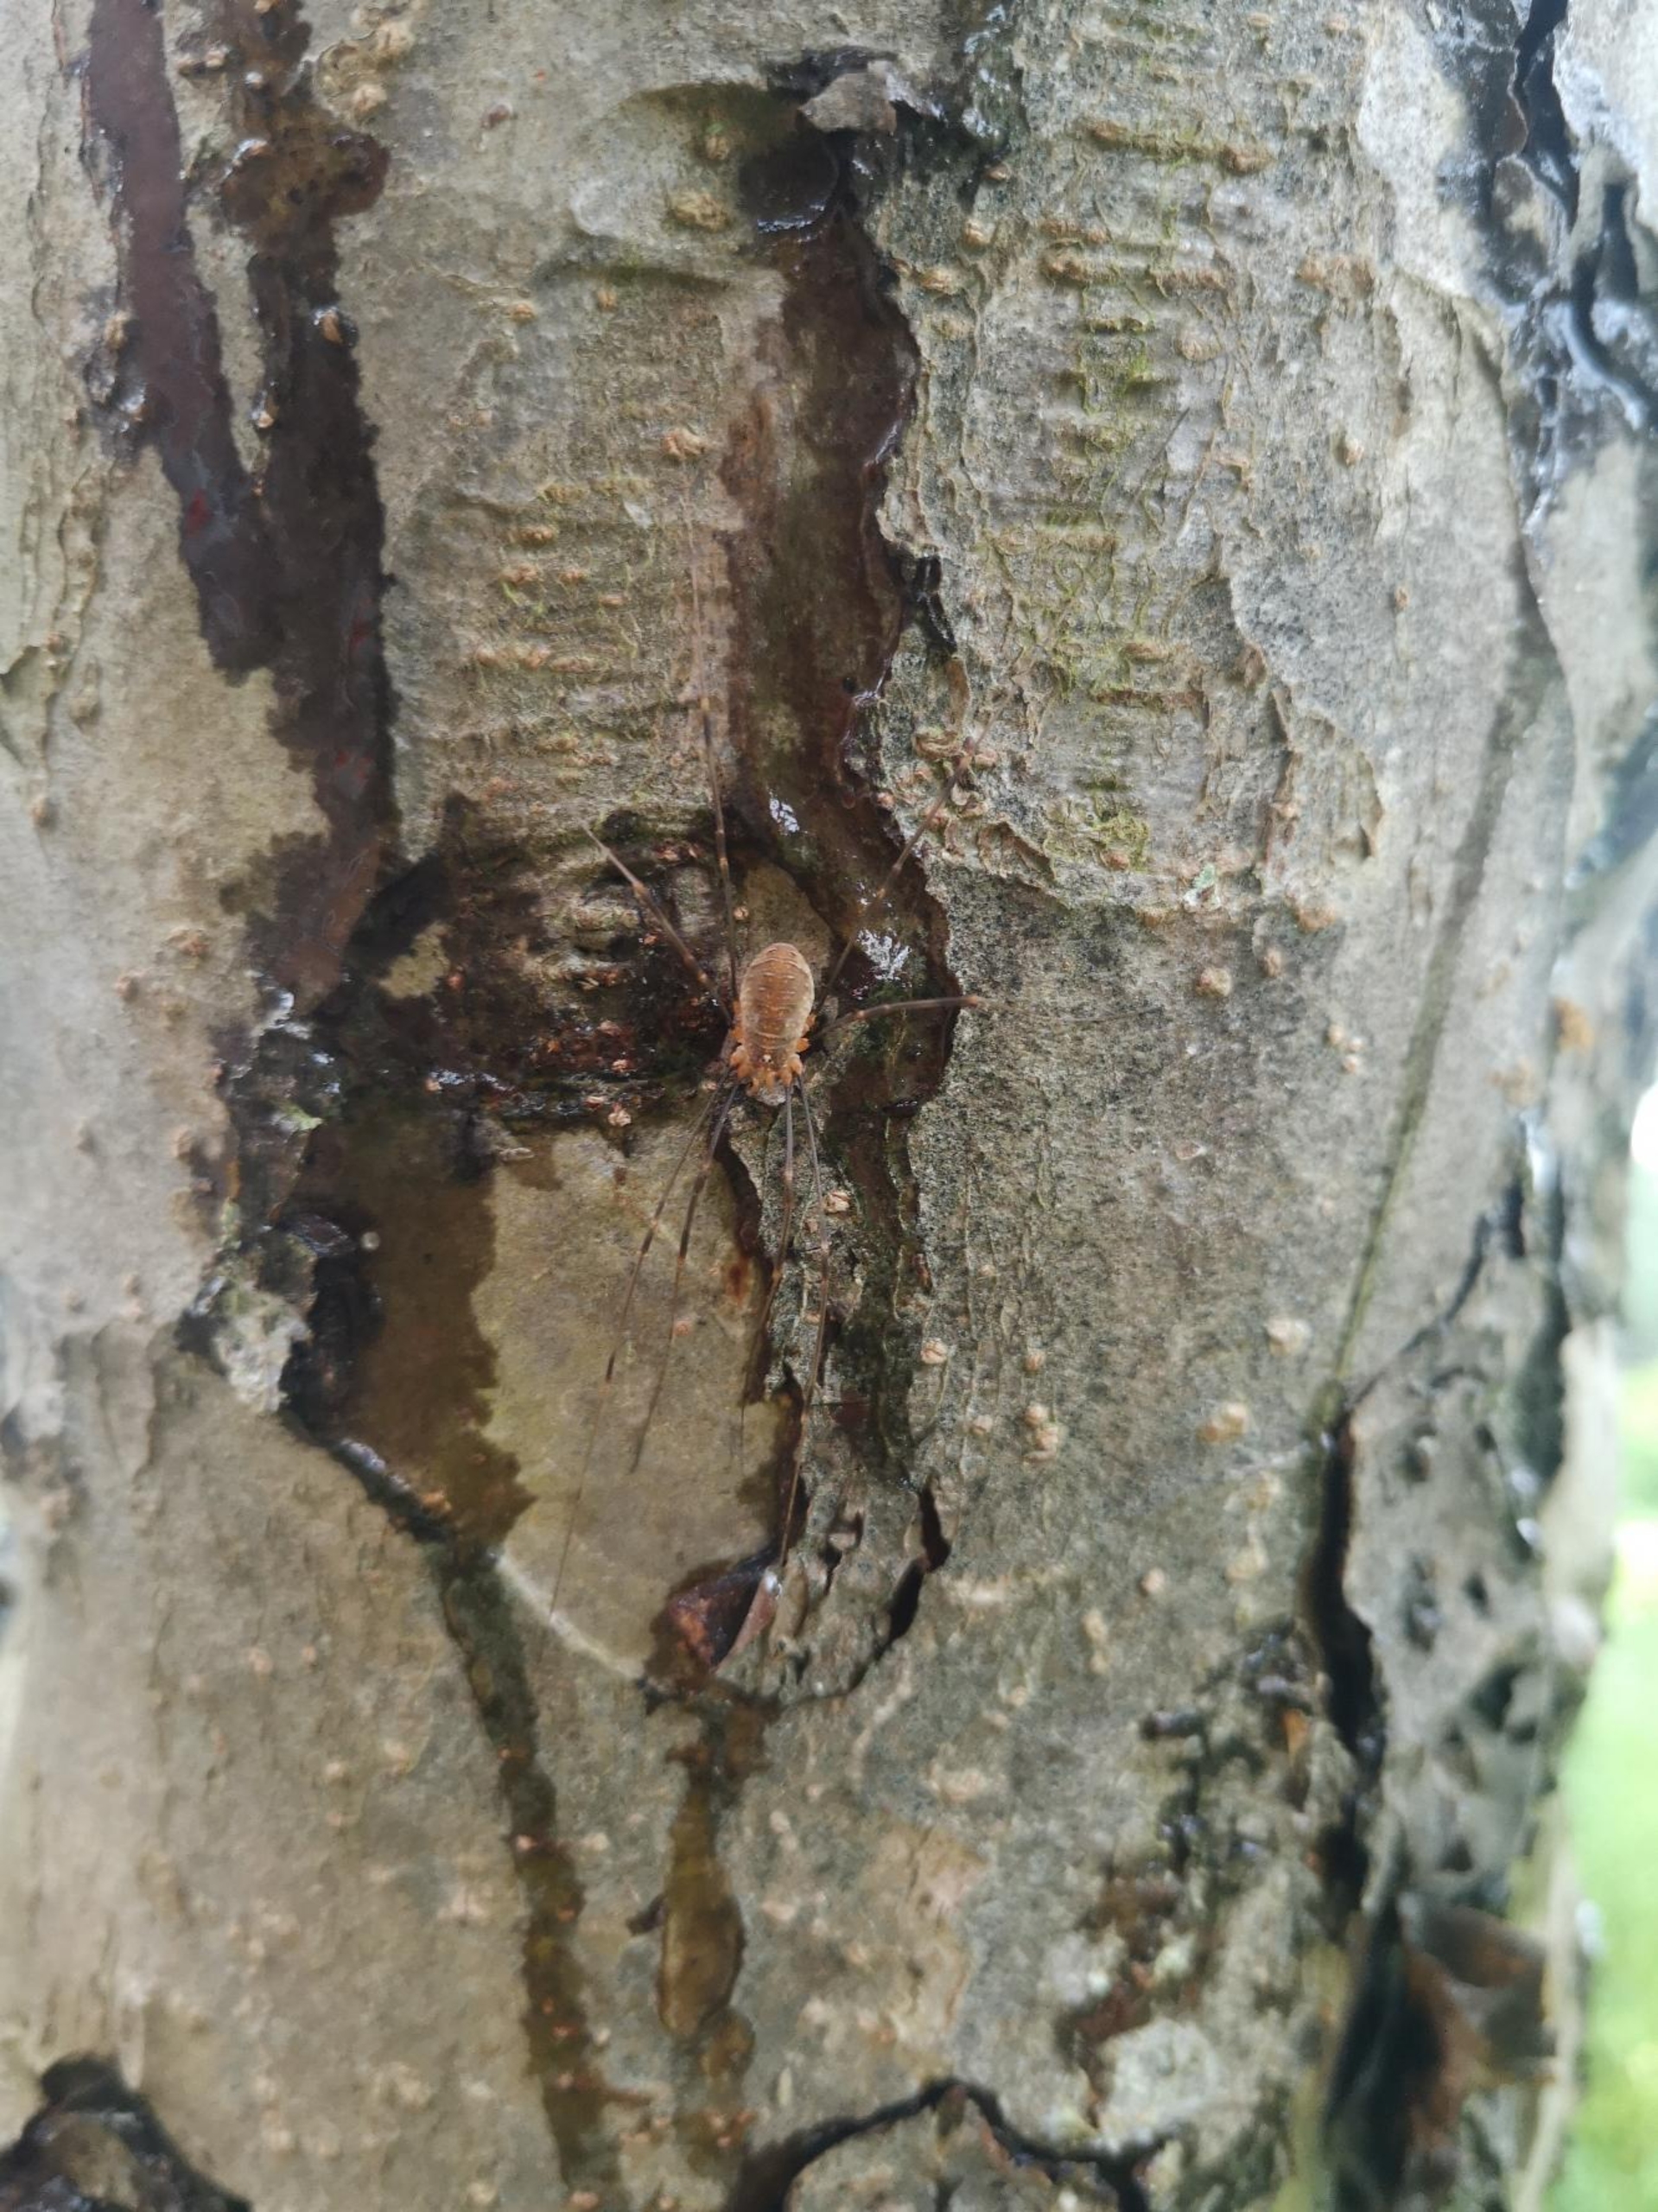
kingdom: Animalia
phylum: Arthropoda
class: Arachnida
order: Opiliones
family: Phalangiidae
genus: Opilio
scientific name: Opilio canestrinii
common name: Orange vægmejer
